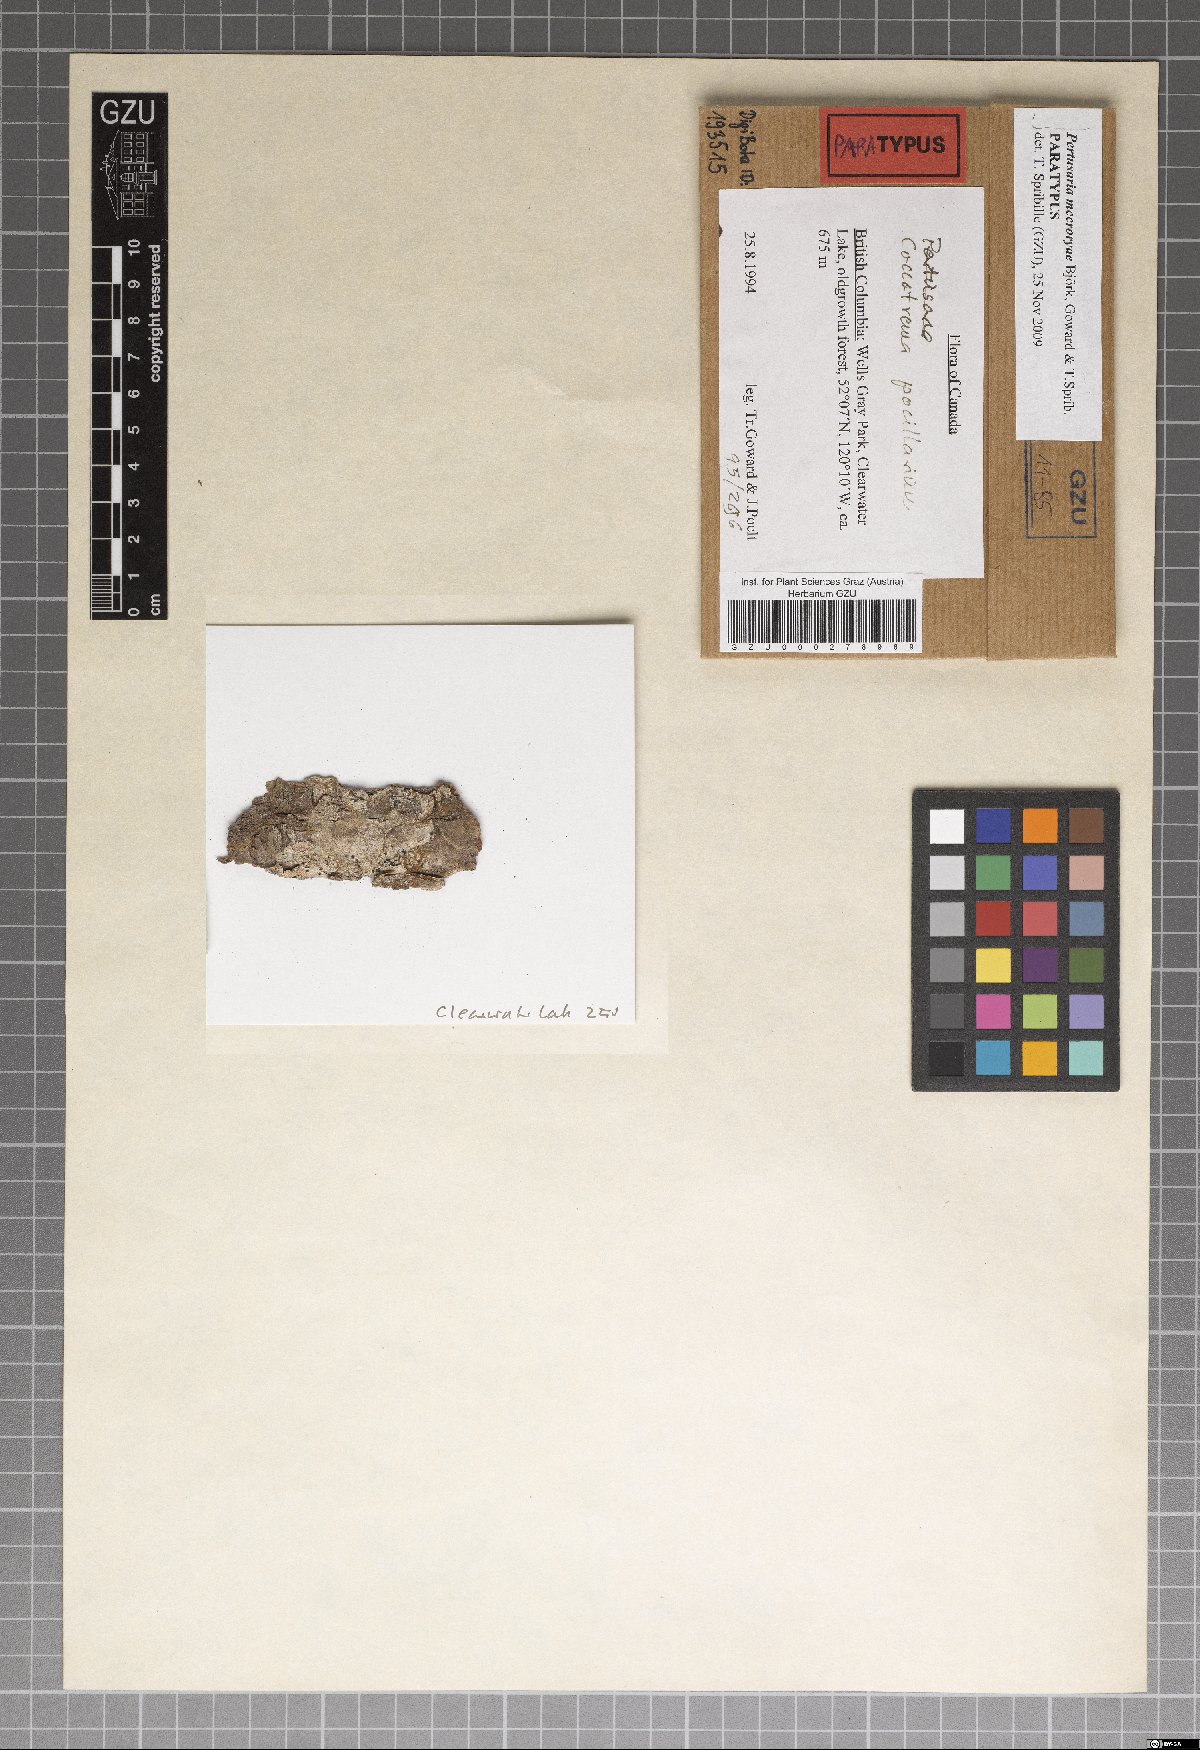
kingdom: Fungi
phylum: Ascomycota
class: Lecanoromycetes
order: Pertusariales
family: Pertusariaceae
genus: Pertusaria
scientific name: Pertusaria mccroryae
